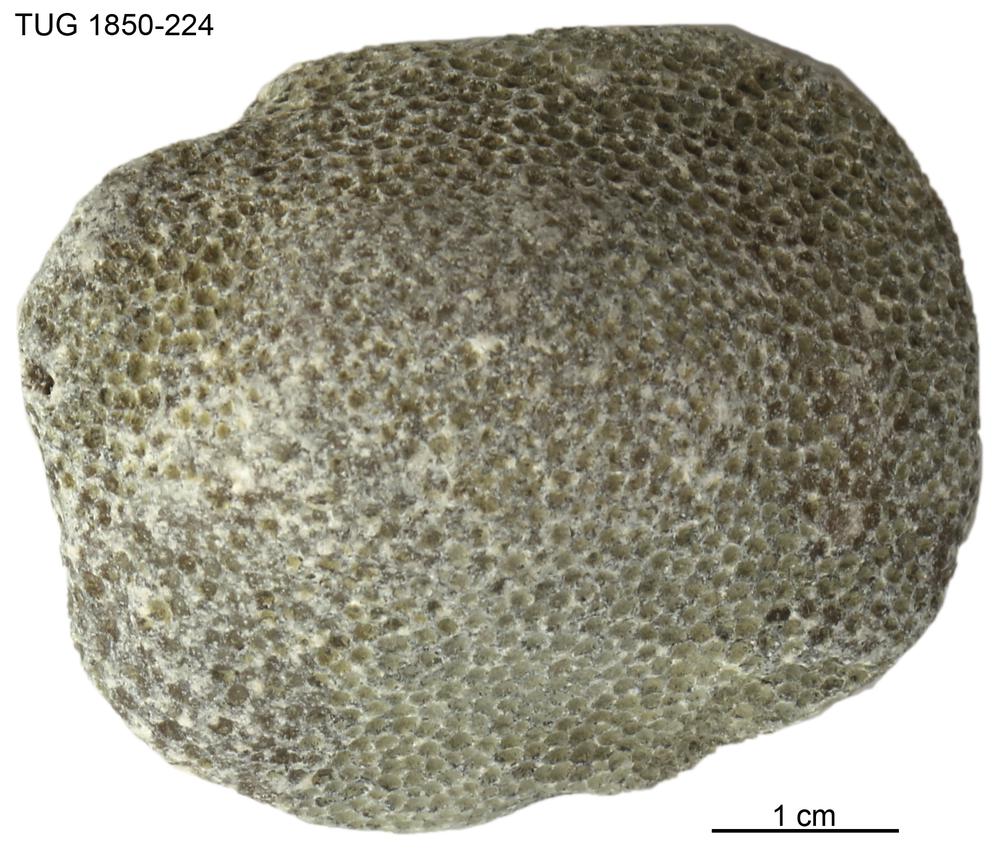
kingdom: Animalia
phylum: Cnidaria
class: Anthozoa
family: Favositidae
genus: Favosites
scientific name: Favosites
